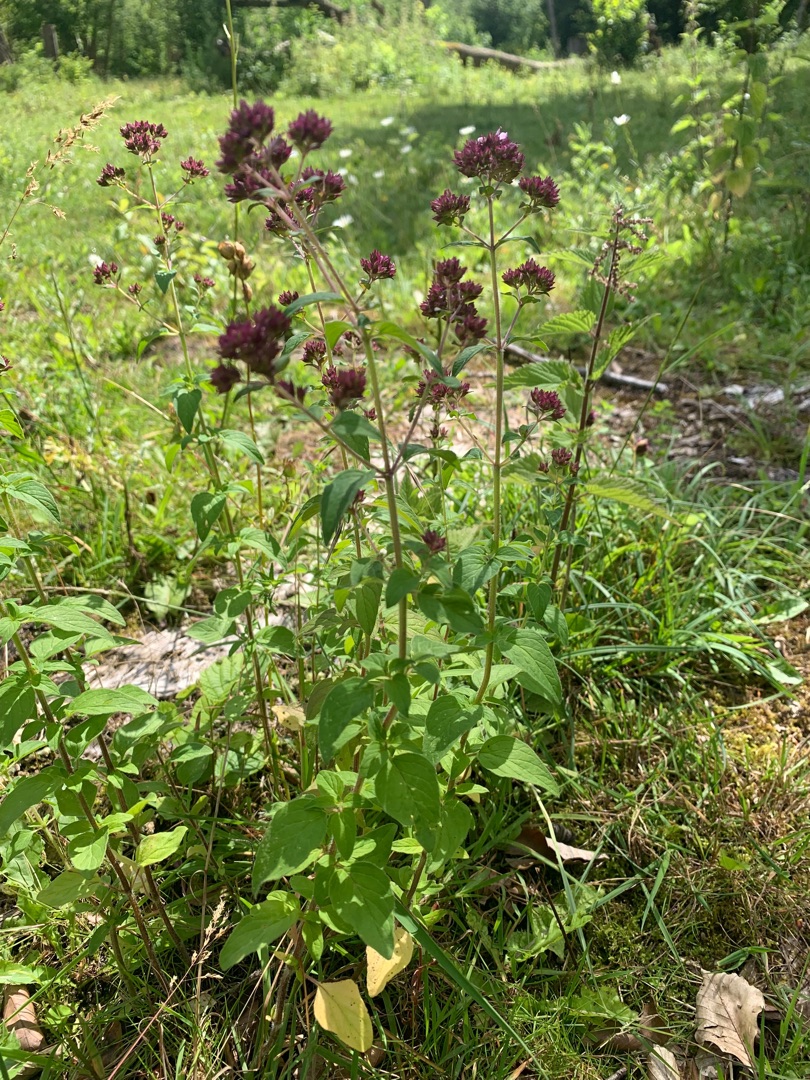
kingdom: Plantae
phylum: Tracheophyta
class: Magnoliopsida
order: Lamiales
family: Lamiaceae
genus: Origanum
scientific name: Origanum vulgare
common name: Merian
